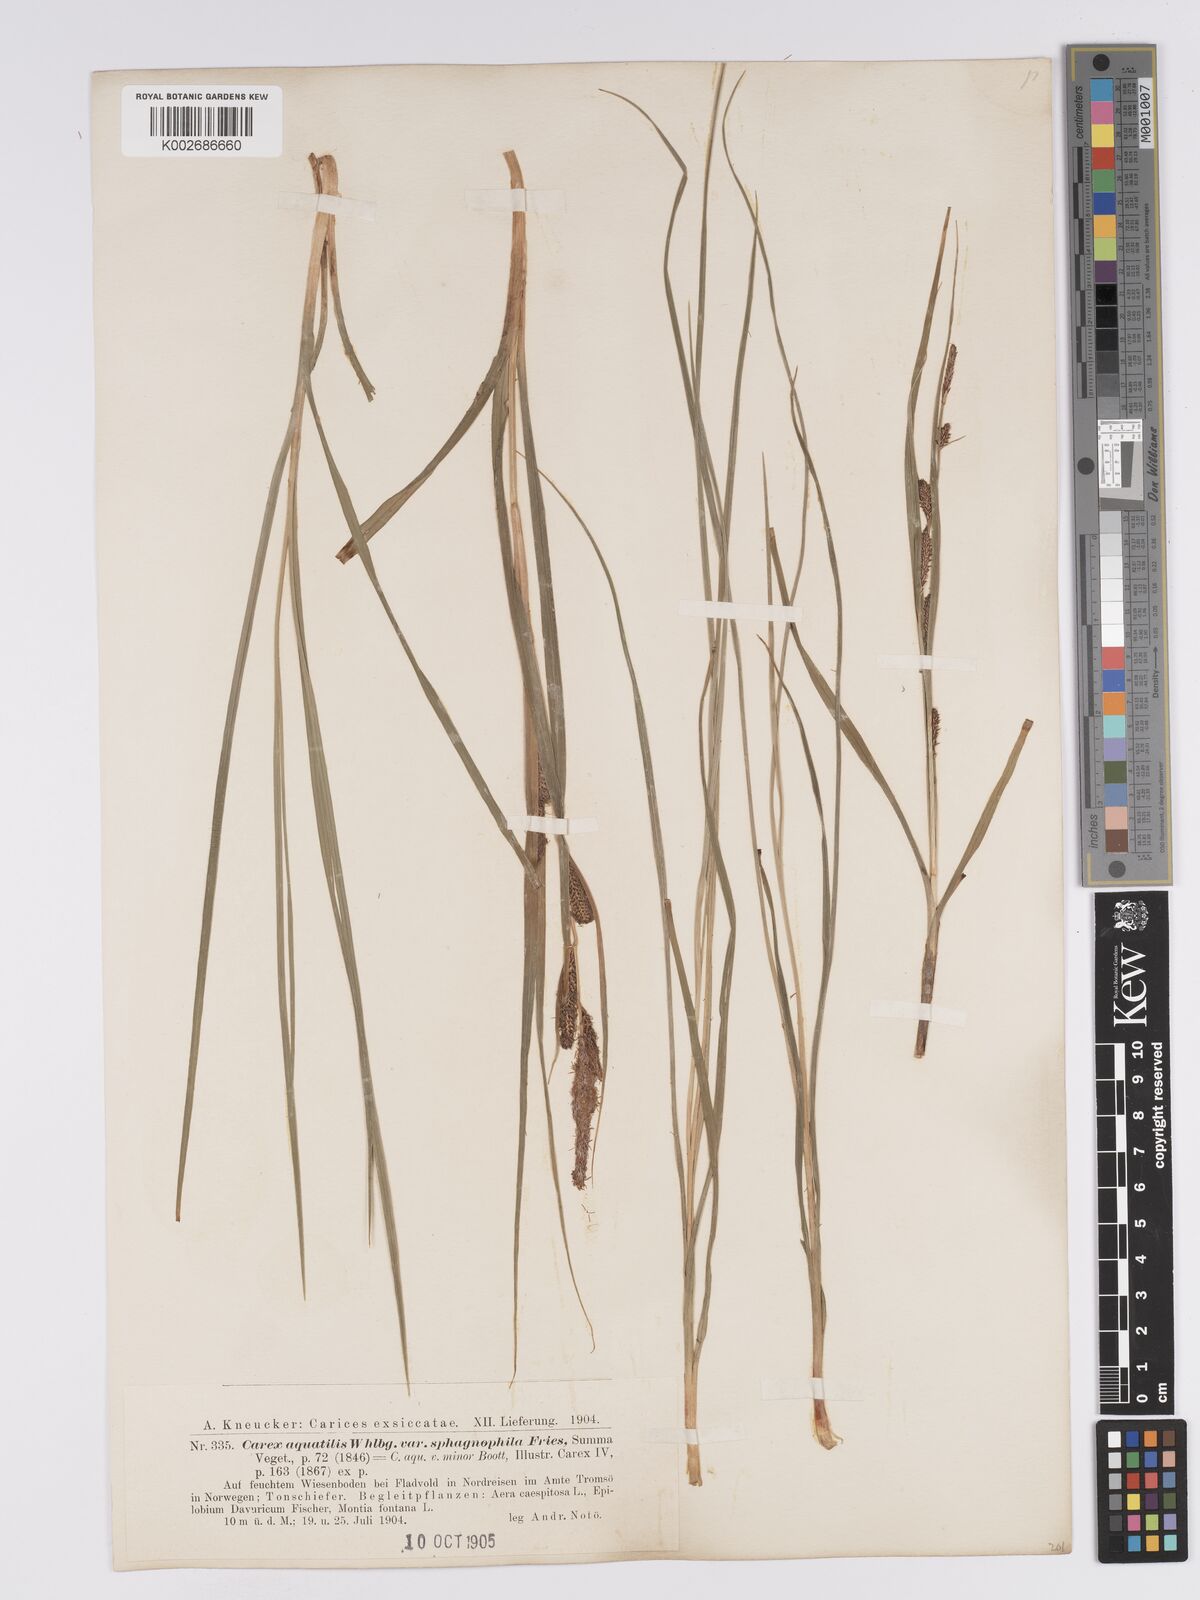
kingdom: Plantae
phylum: Tracheophyta
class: Liliopsida
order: Poales
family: Cyperaceae
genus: Carex
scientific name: Carex aquatilis
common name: Water sedge
